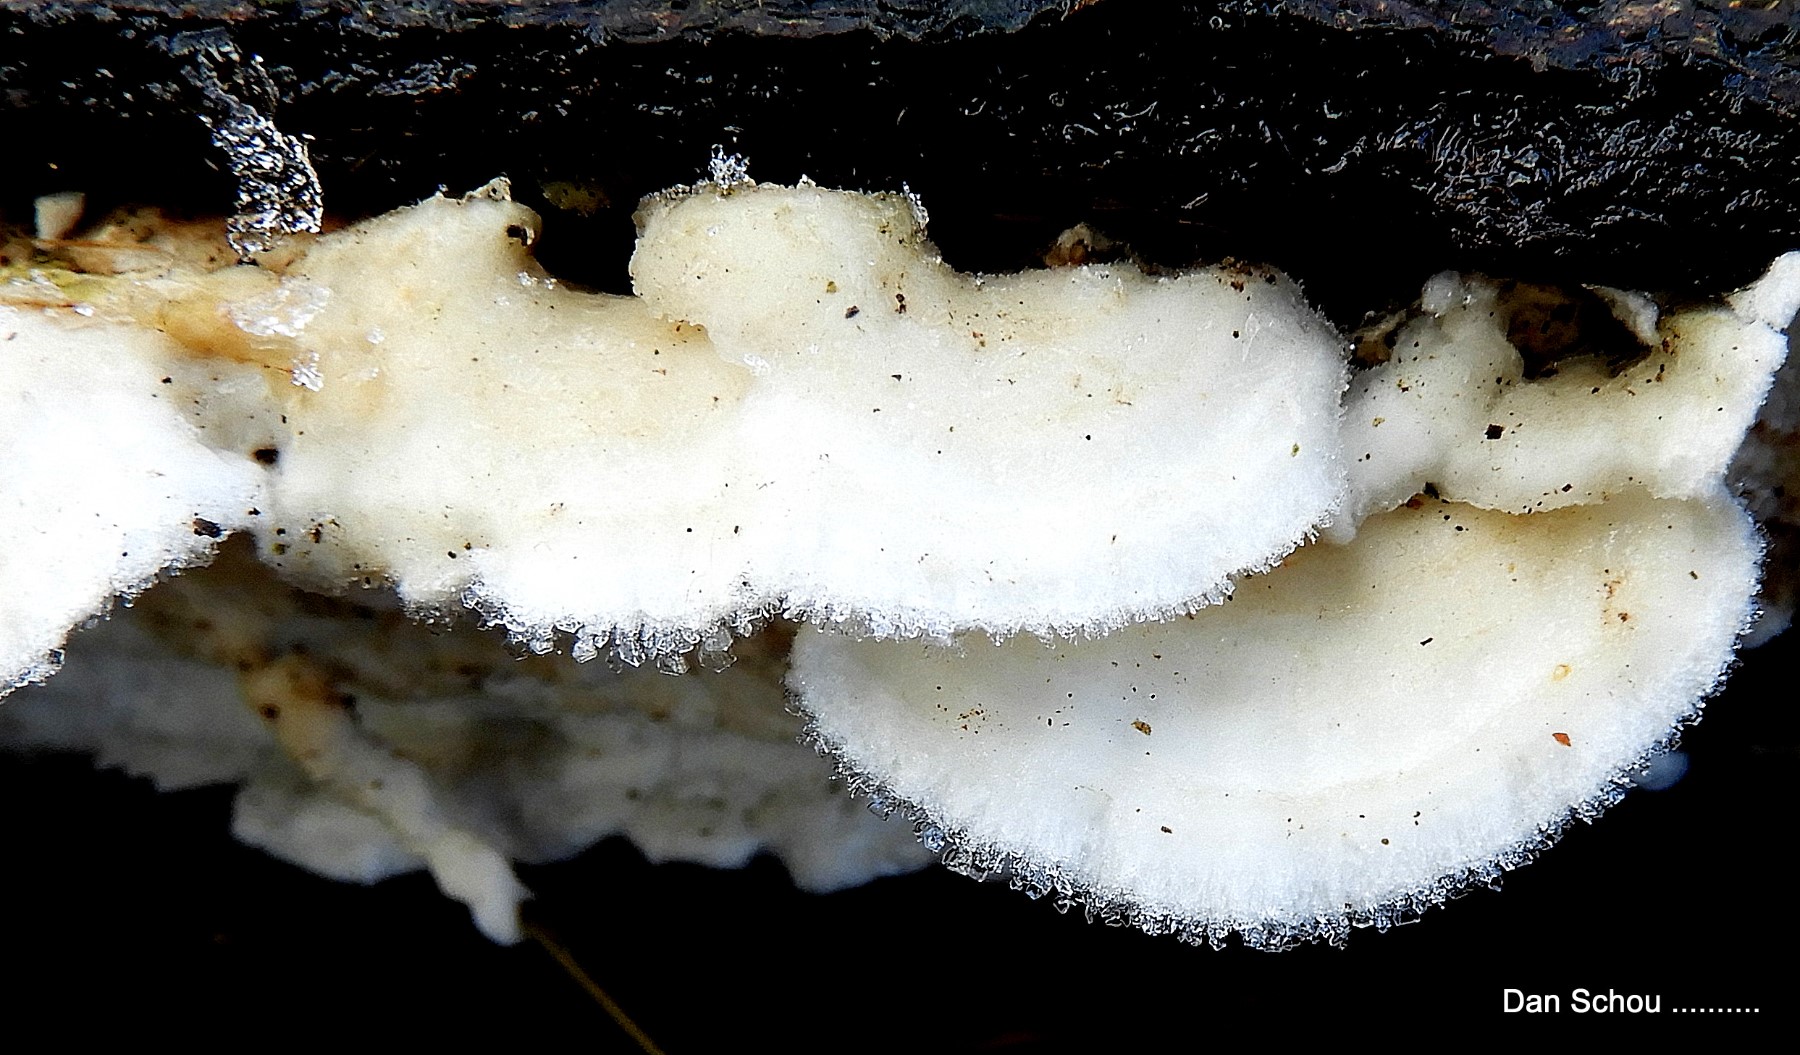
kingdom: Fungi
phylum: Basidiomycota
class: Agaricomycetes
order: Polyporales
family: Irpicaceae
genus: Byssomerulius
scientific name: Byssomerulius corium
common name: læder-åresvamp
